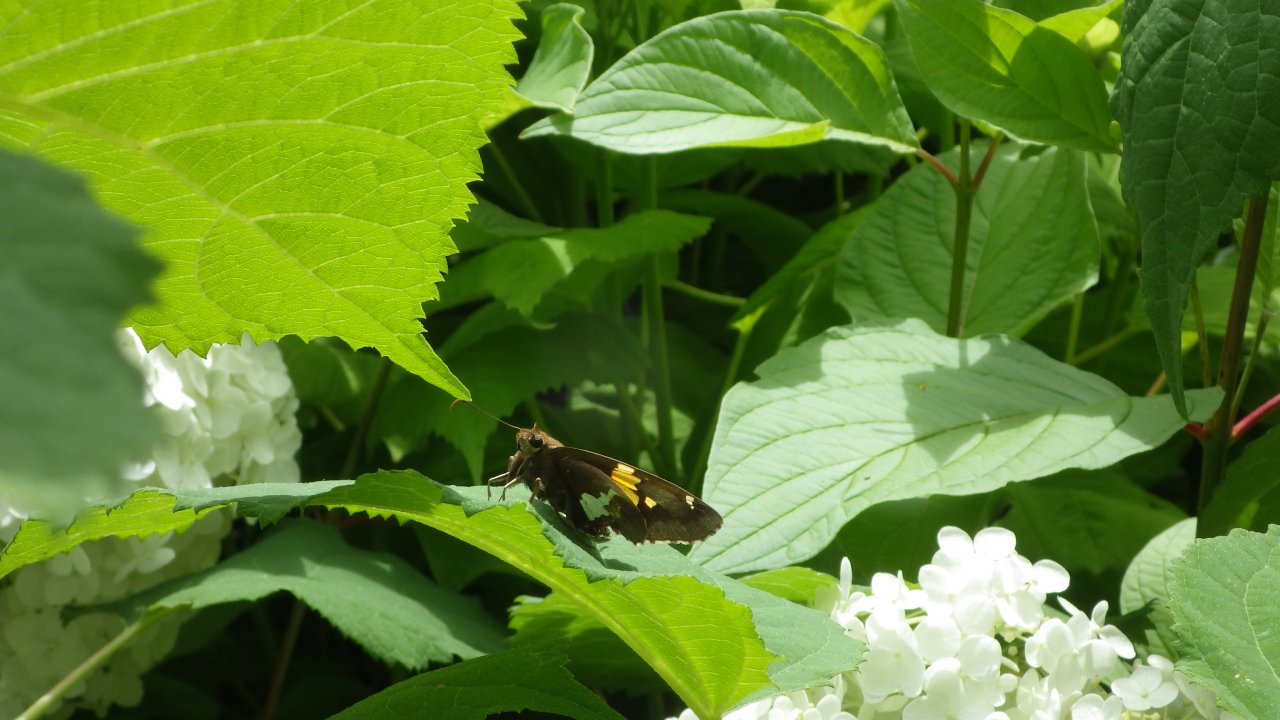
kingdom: Animalia
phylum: Arthropoda
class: Insecta
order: Lepidoptera
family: Hesperiidae
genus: Epargyreus
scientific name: Epargyreus clarus
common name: Silver-spotted Skipper
